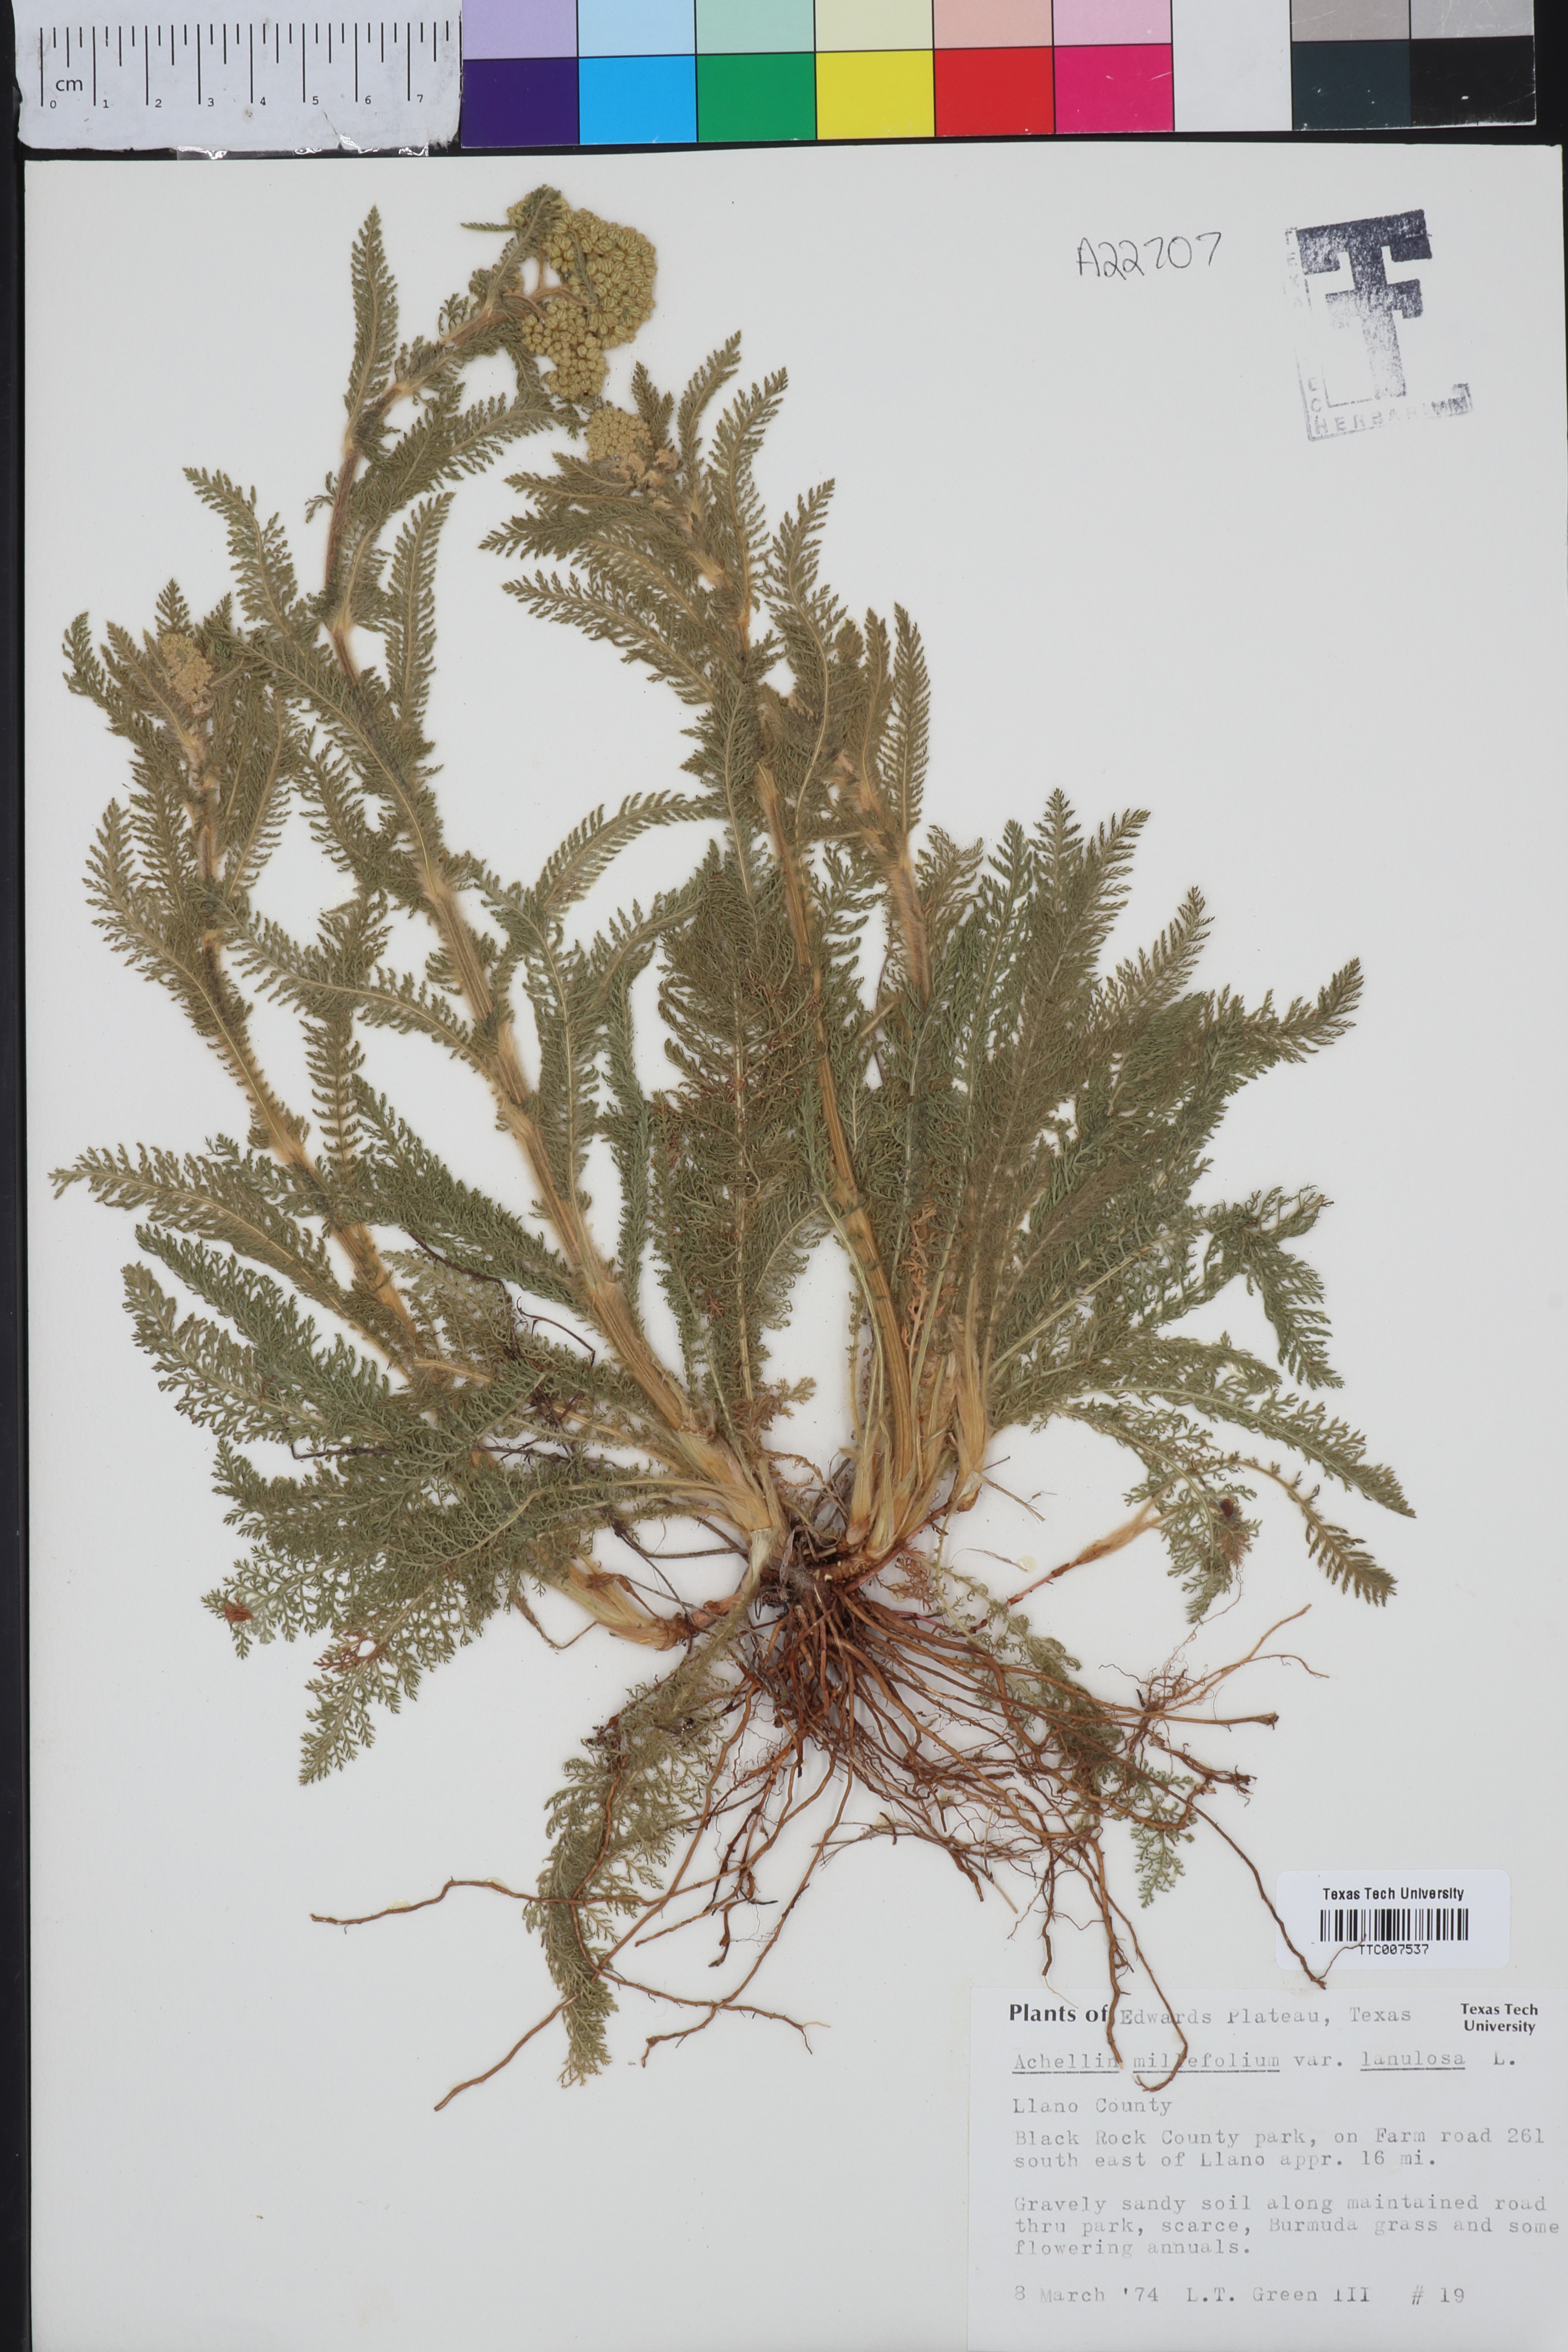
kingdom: Plantae
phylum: Tracheophyta
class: Magnoliopsida
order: Asterales
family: Asteraceae
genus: Achillea
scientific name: Achillea millefolium
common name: Yarrow
